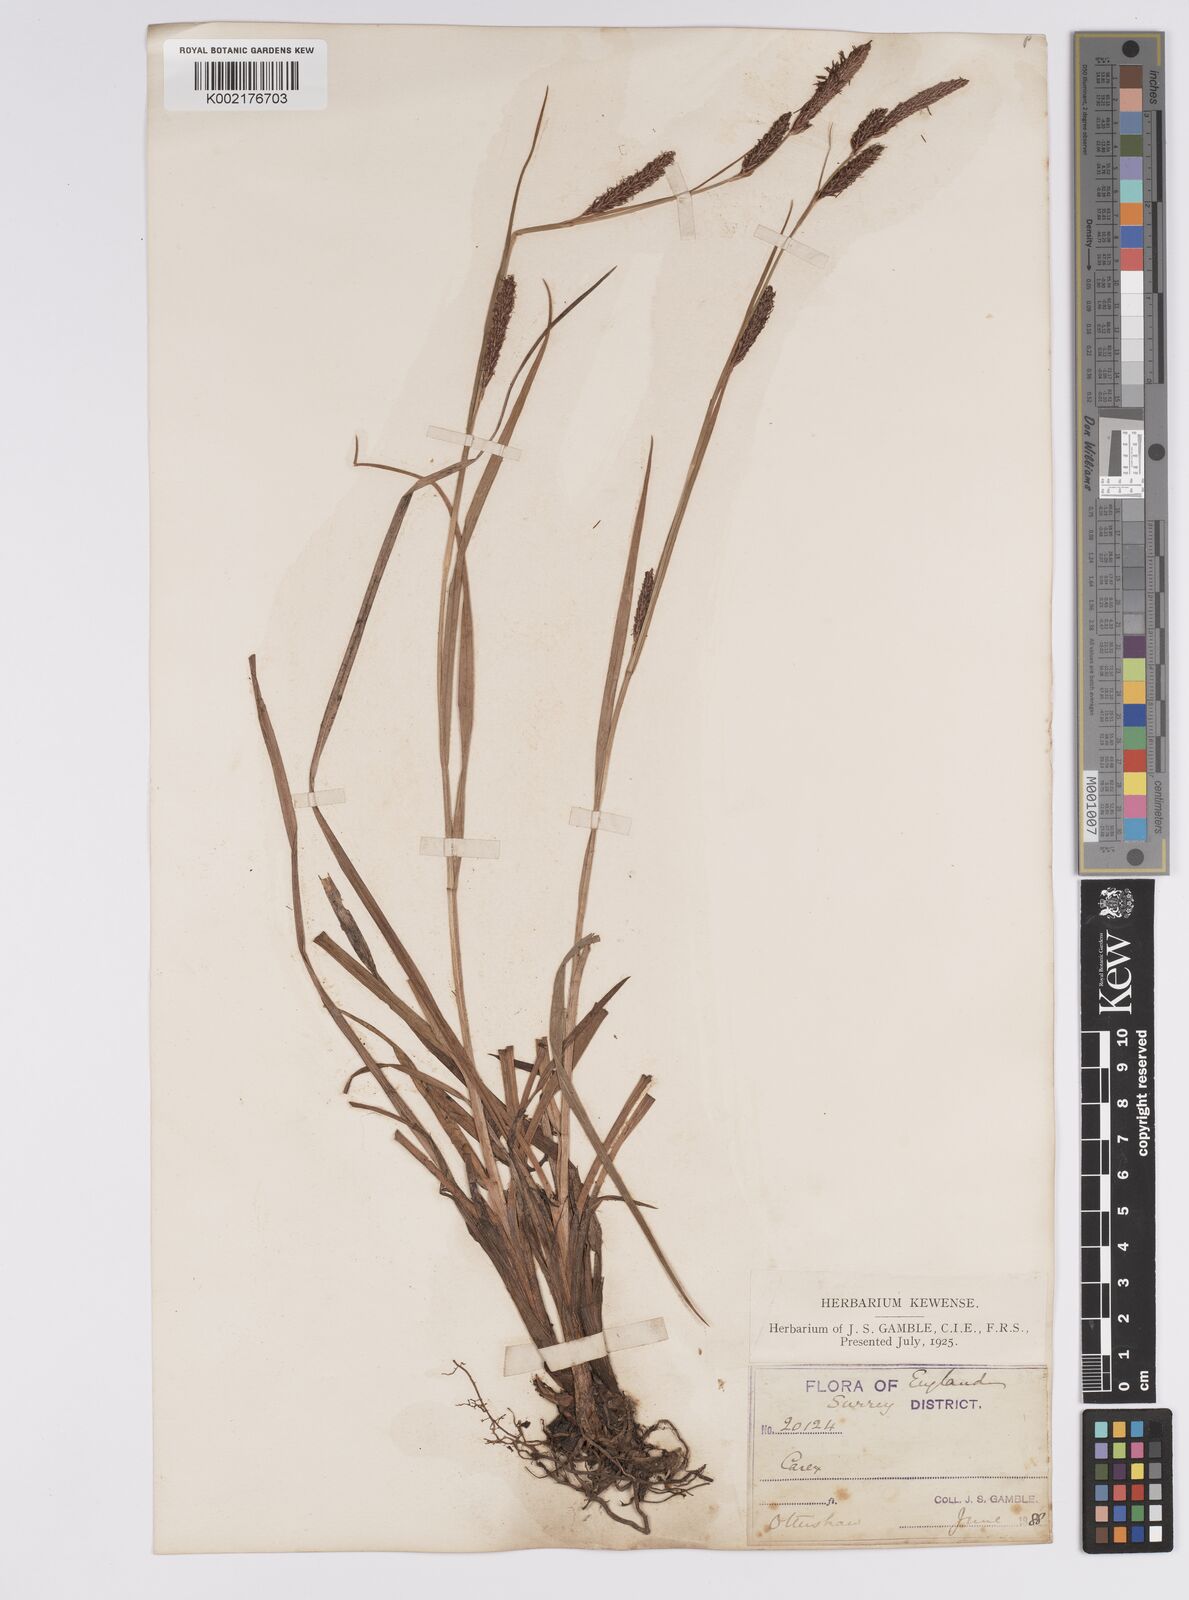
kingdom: Plantae
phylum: Tracheophyta
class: Liliopsida
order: Poales
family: Cyperaceae
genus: Carex
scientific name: Carex binervis
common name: Green-ribbed sedge
